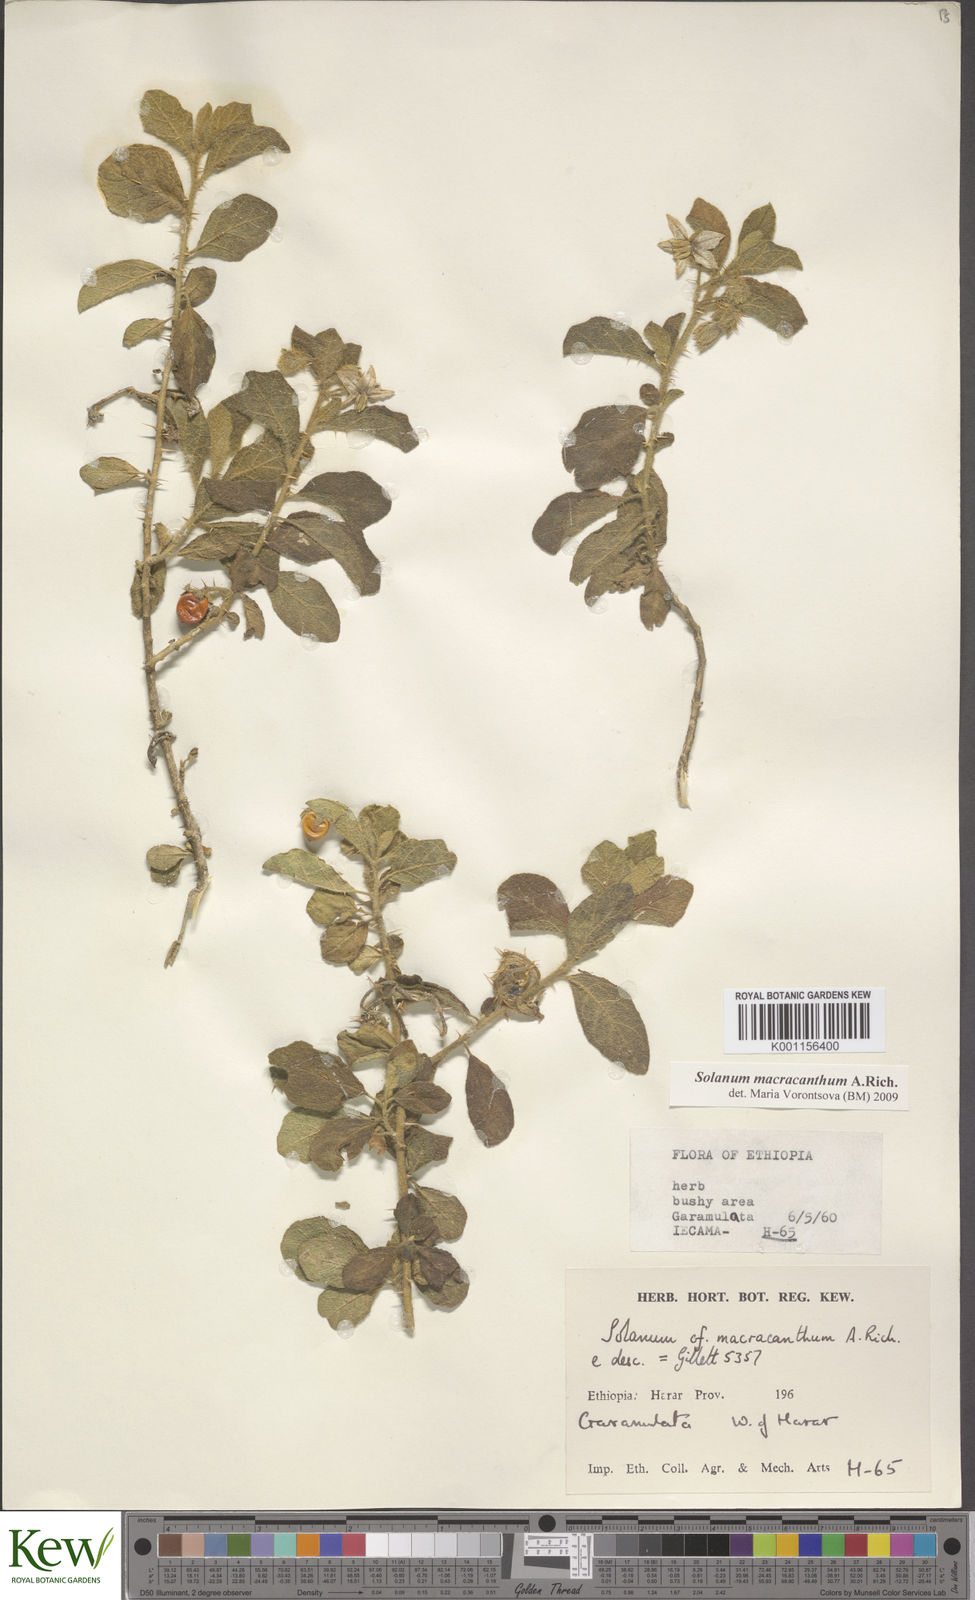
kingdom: Plantae
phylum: Tracheophyta
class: Magnoliopsida
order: Solanales
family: Solanaceae
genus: Solanum
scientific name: Solanum macracanthum
